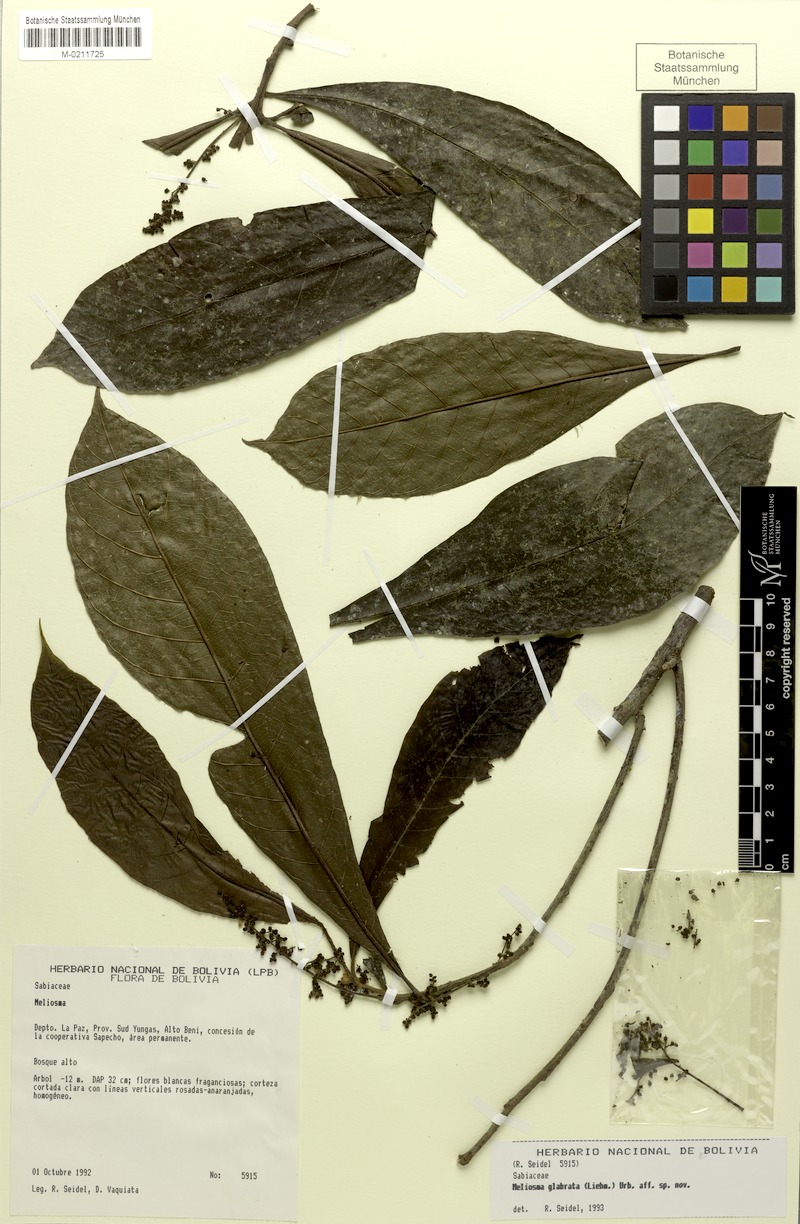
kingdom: Plantae
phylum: Tracheophyta
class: Magnoliopsida
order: Proteales
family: Sabiaceae
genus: Meliosma
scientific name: Meliosma glabrata
